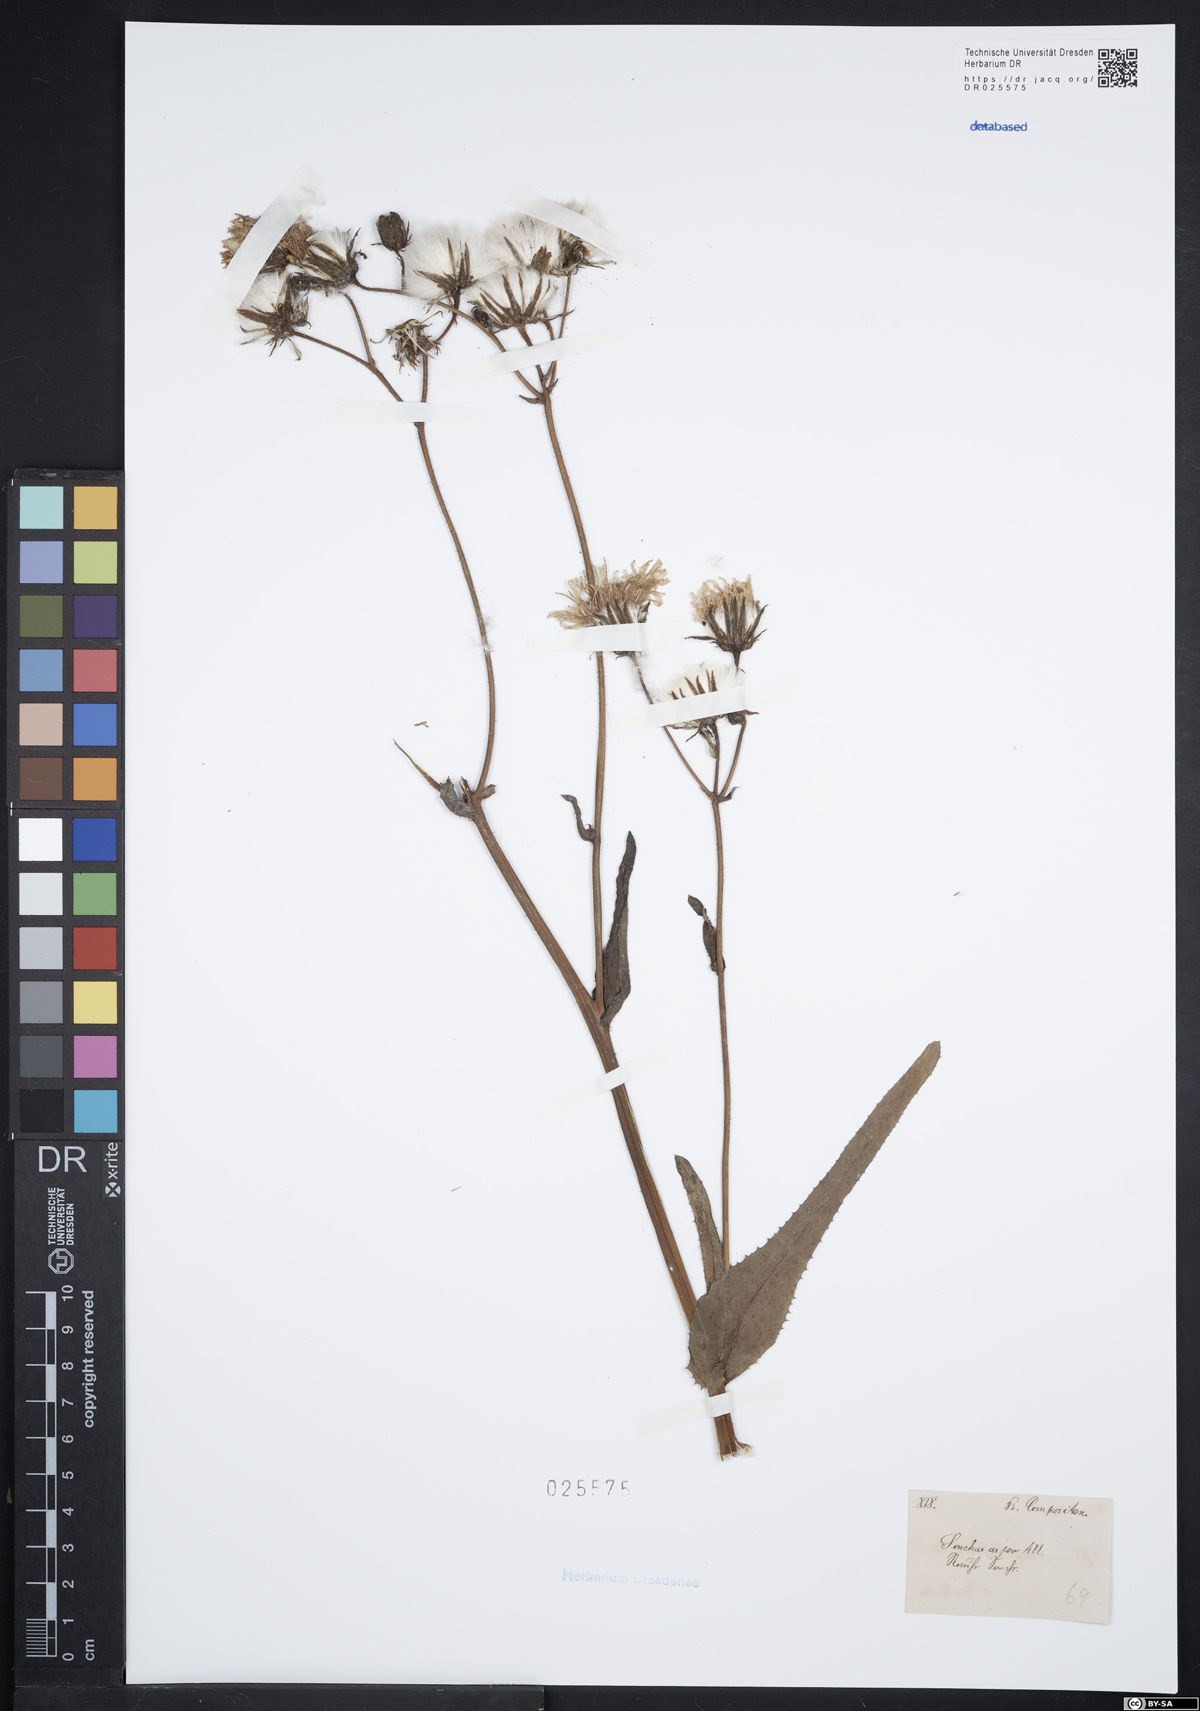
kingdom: Plantae
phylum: Tracheophyta
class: Magnoliopsida
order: Asterales
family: Asteraceae
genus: Sonchus
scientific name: Sonchus asper
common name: Prickly sow-thistle
